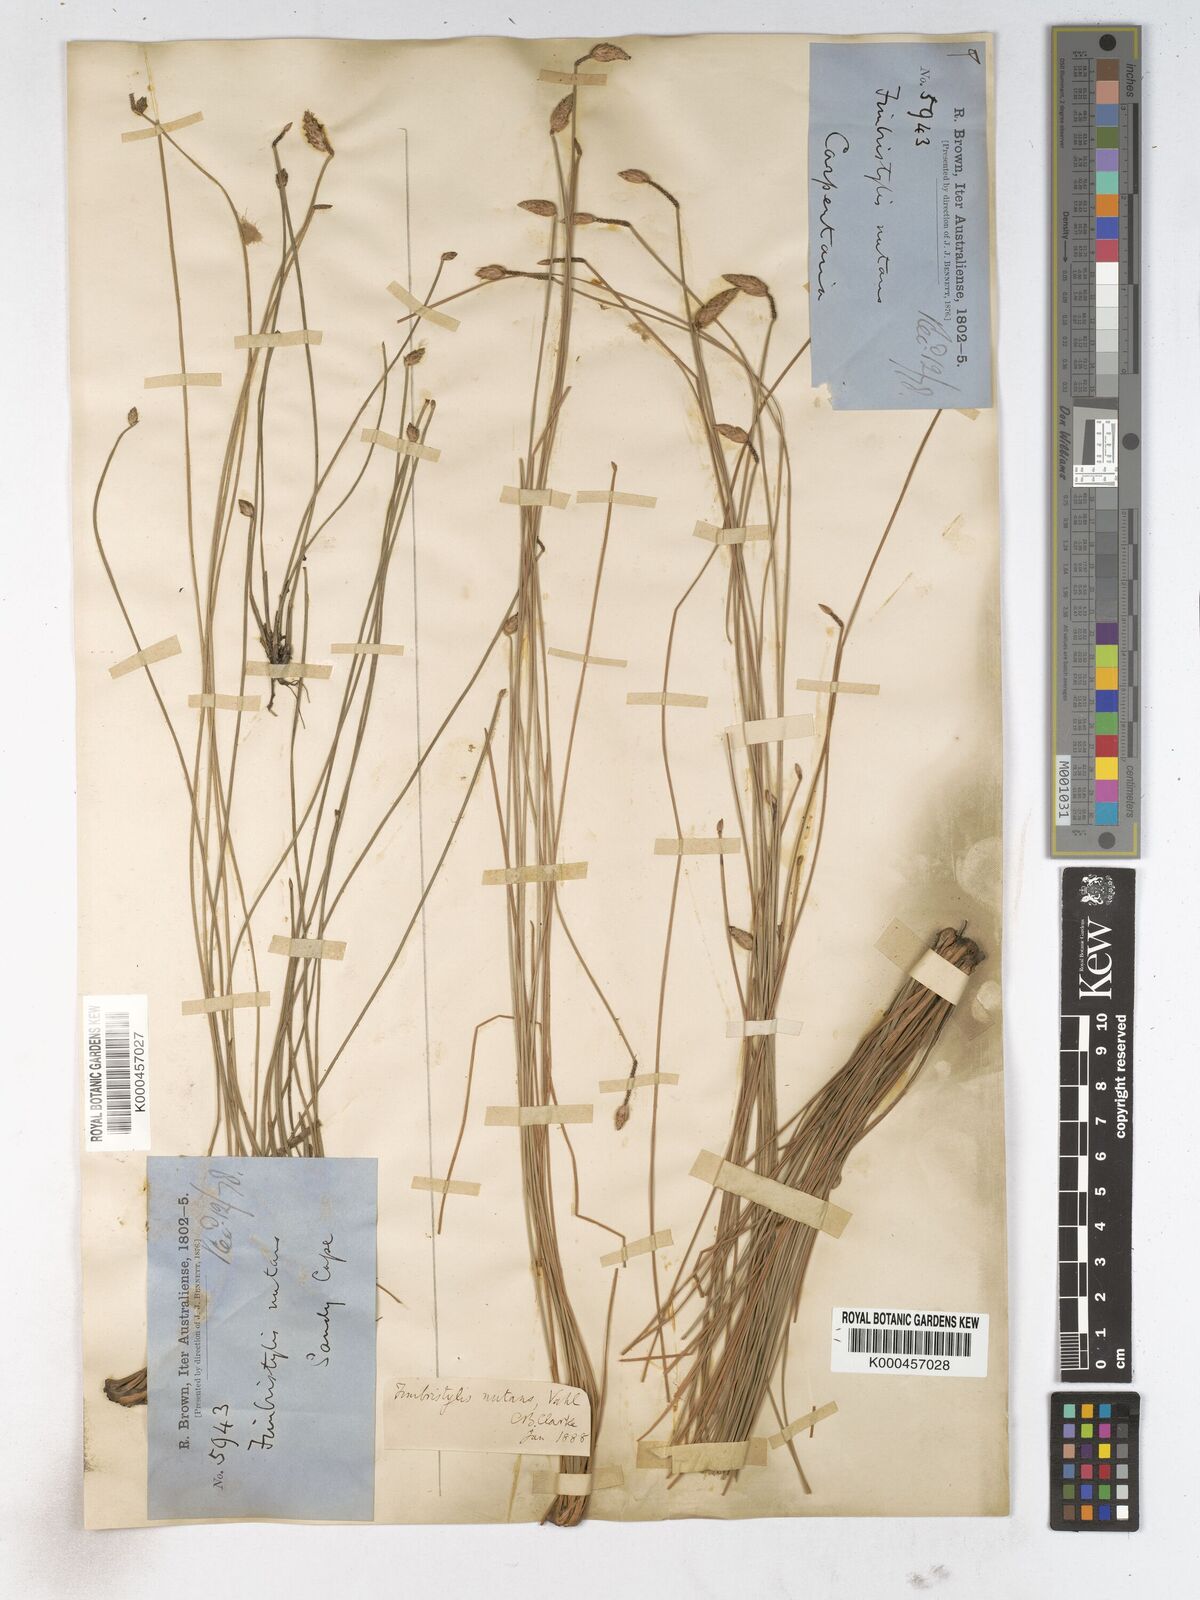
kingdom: Plantae
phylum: Tracheophyta
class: Liliopsida
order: Poales
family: Cyperaceae
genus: Fimbristylis
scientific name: Fimbristylis nutans
